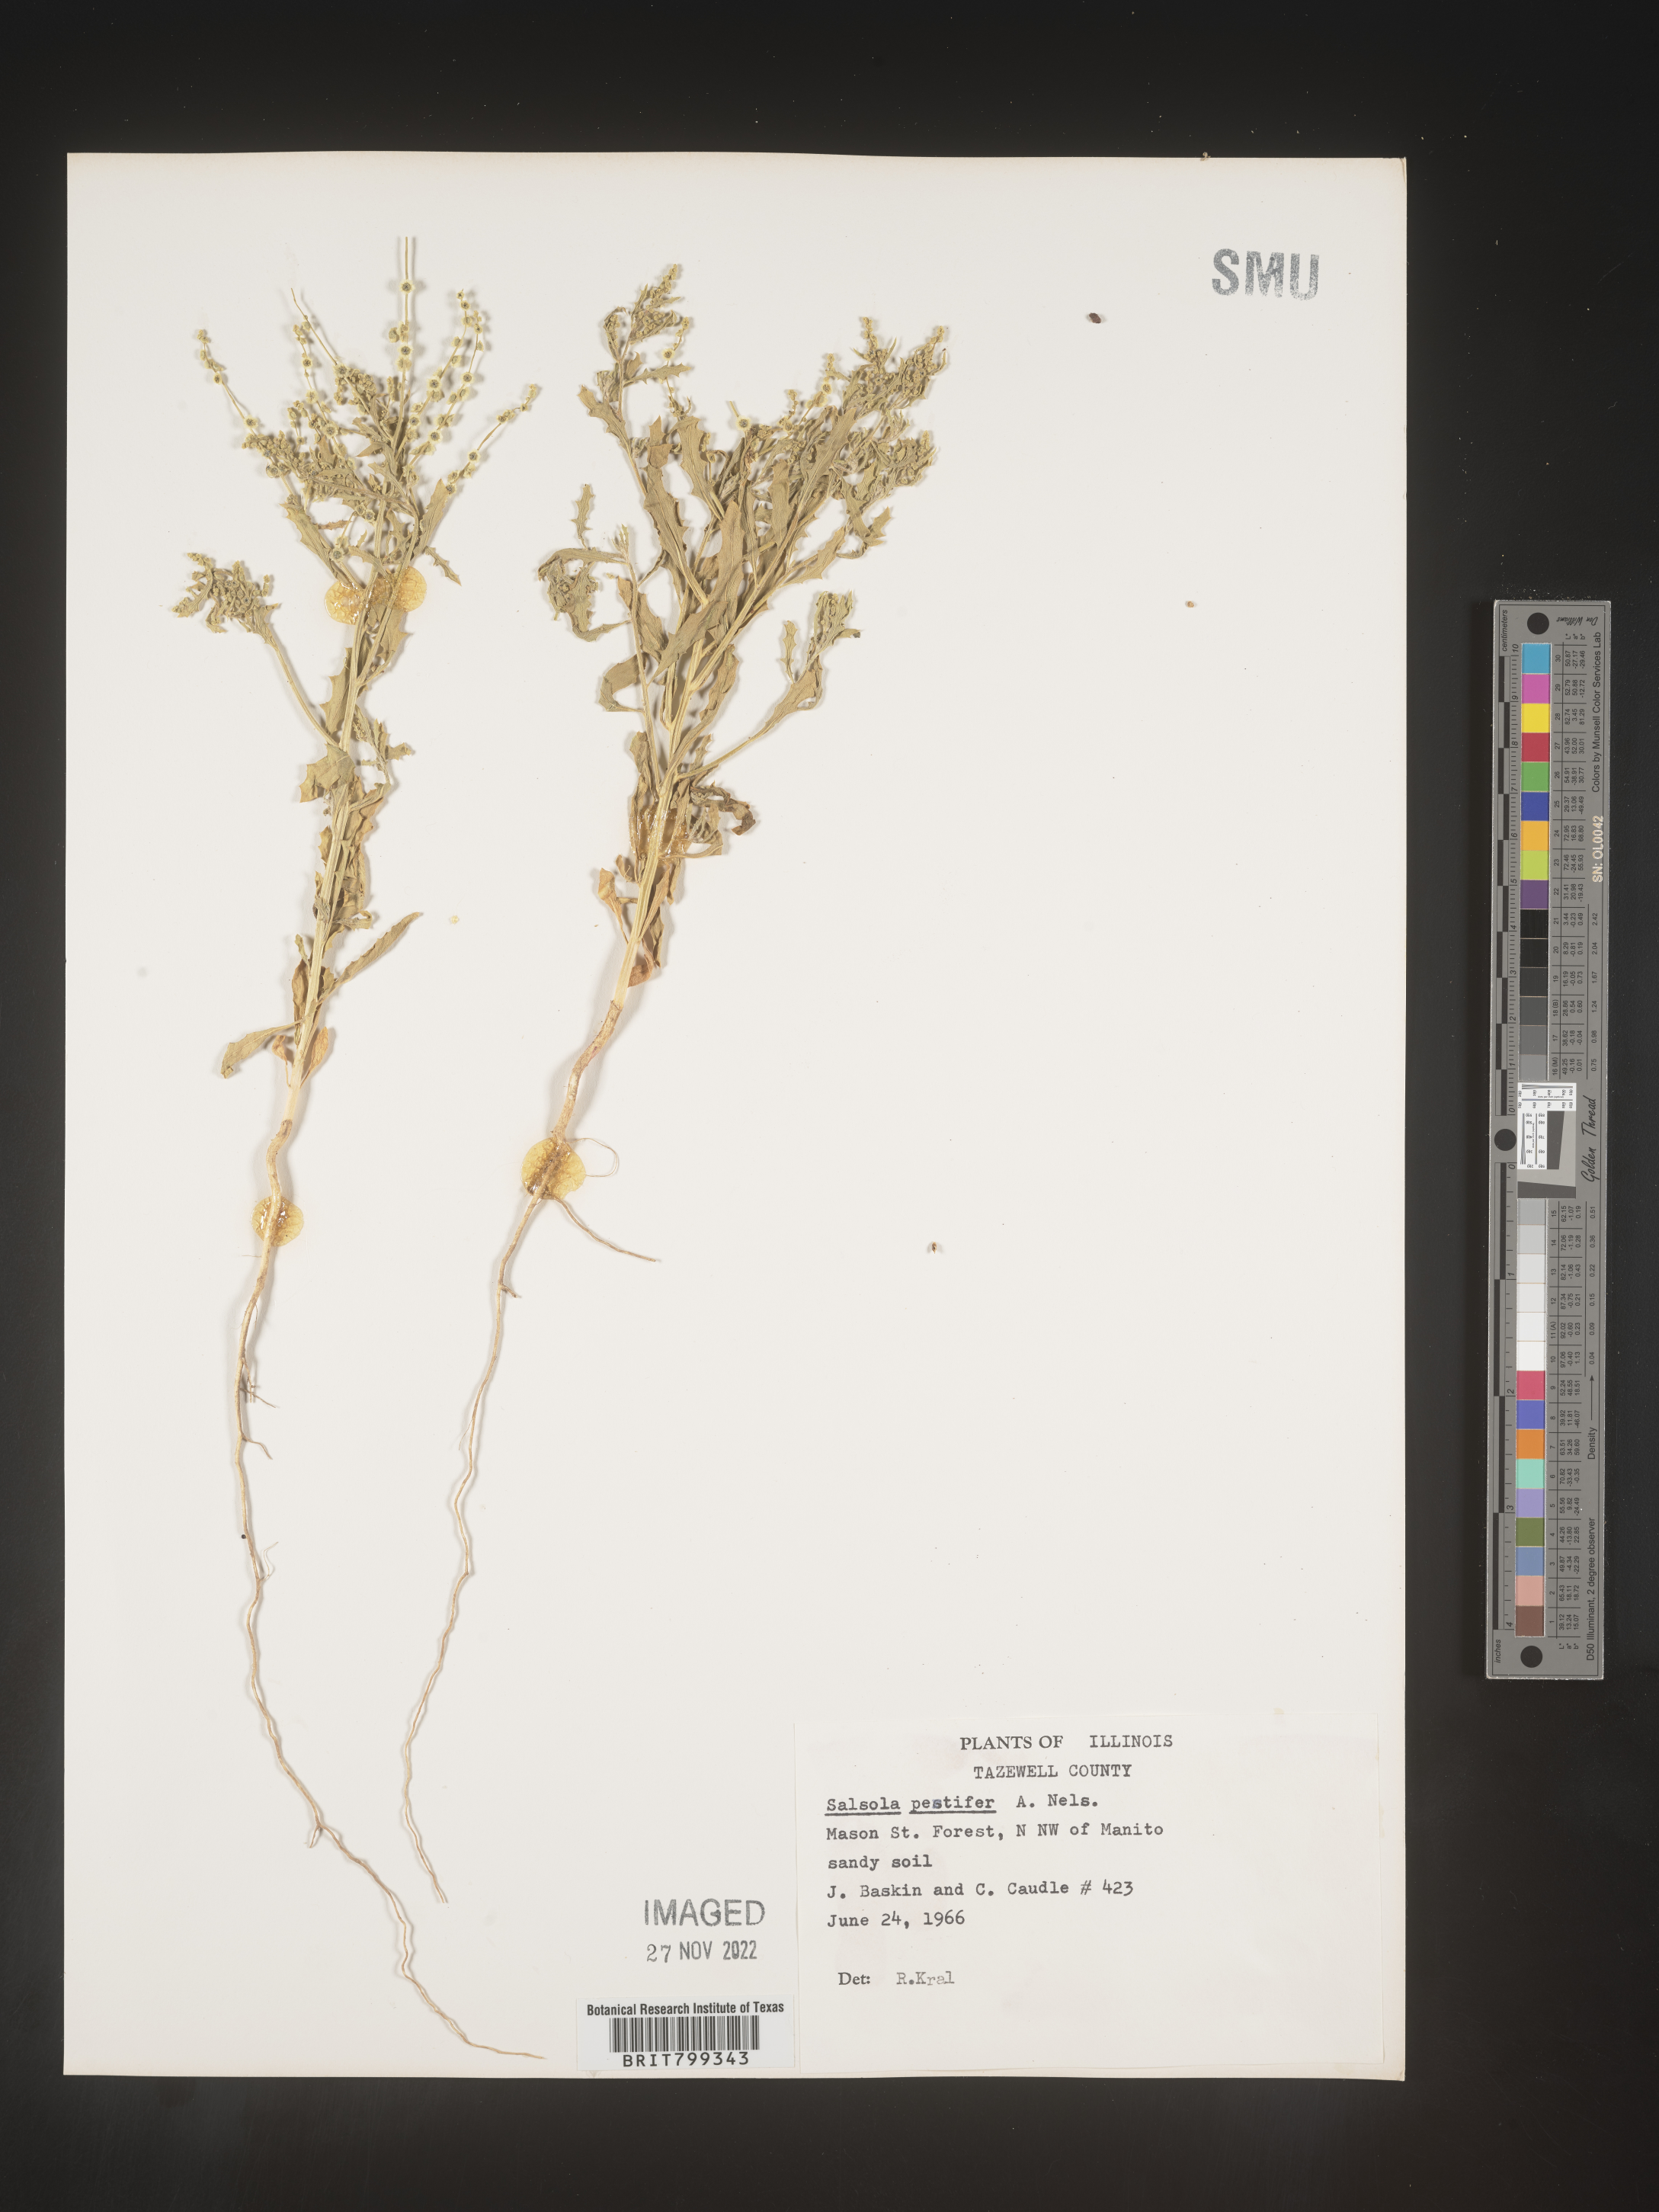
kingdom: Plantae
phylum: Tracheophyta
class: Magnoliopsida
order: Caryophyllales
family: Amaranthaceae
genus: Dysphania
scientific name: Dysphania atriplicifolia
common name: Plains tumbleweed
